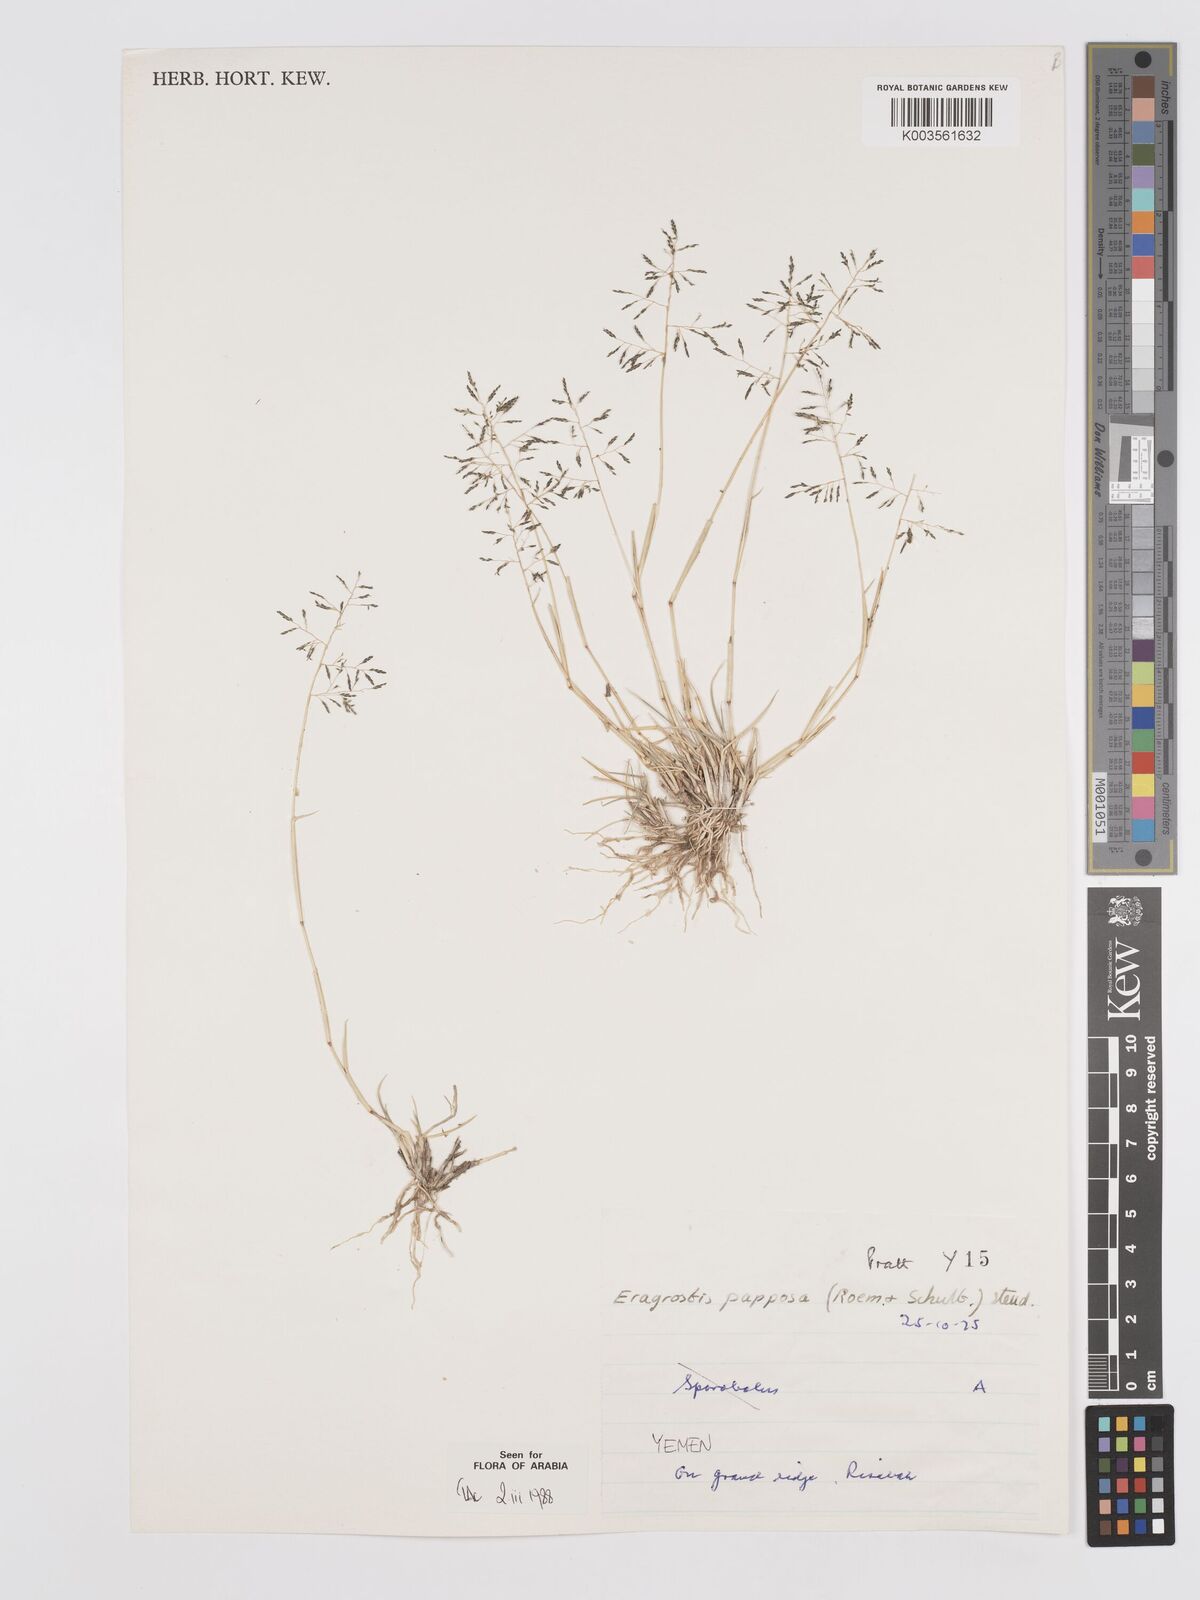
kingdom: Plantae
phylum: Tracheophyta
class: Liliopsida
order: Poales
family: Poaceae
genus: Eragrostis
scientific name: Eragrostis papposa
